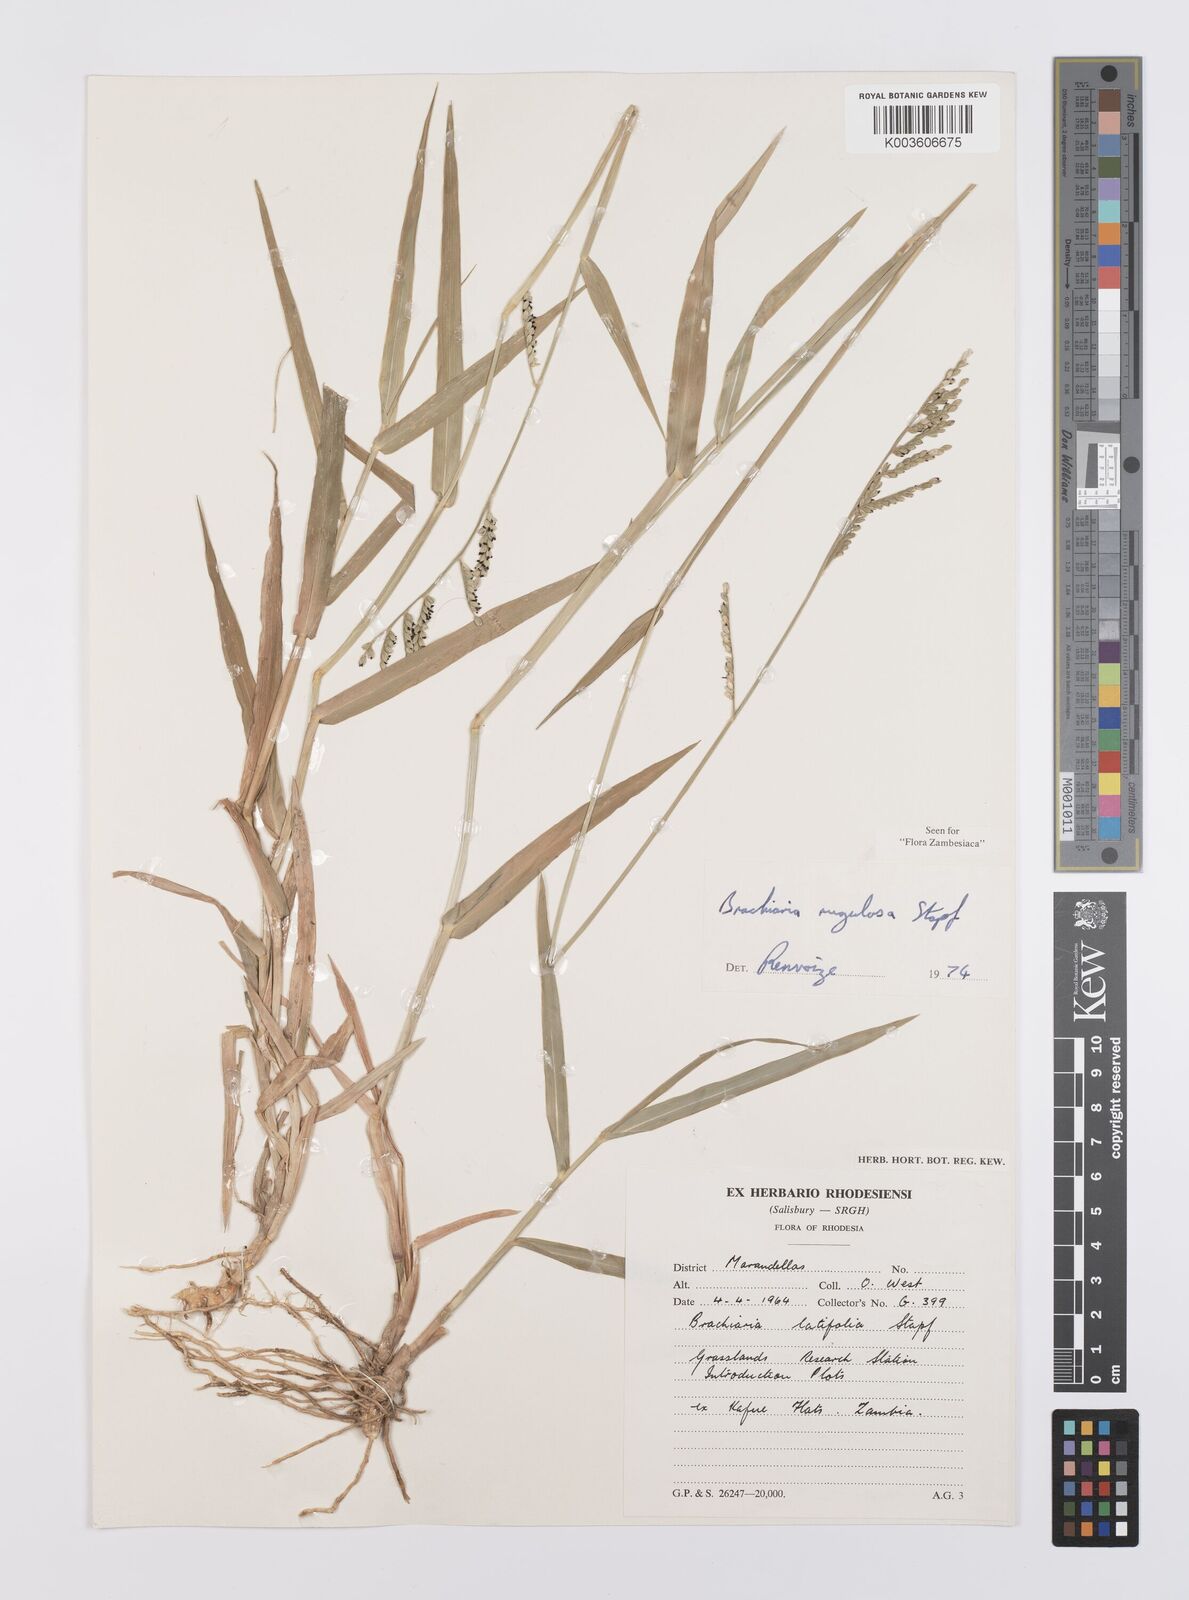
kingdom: Plantae
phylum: Tracheophyta
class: Liliopsida
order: Poales
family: Poaceae
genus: Urochloa
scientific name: Urochloa rugulosa
